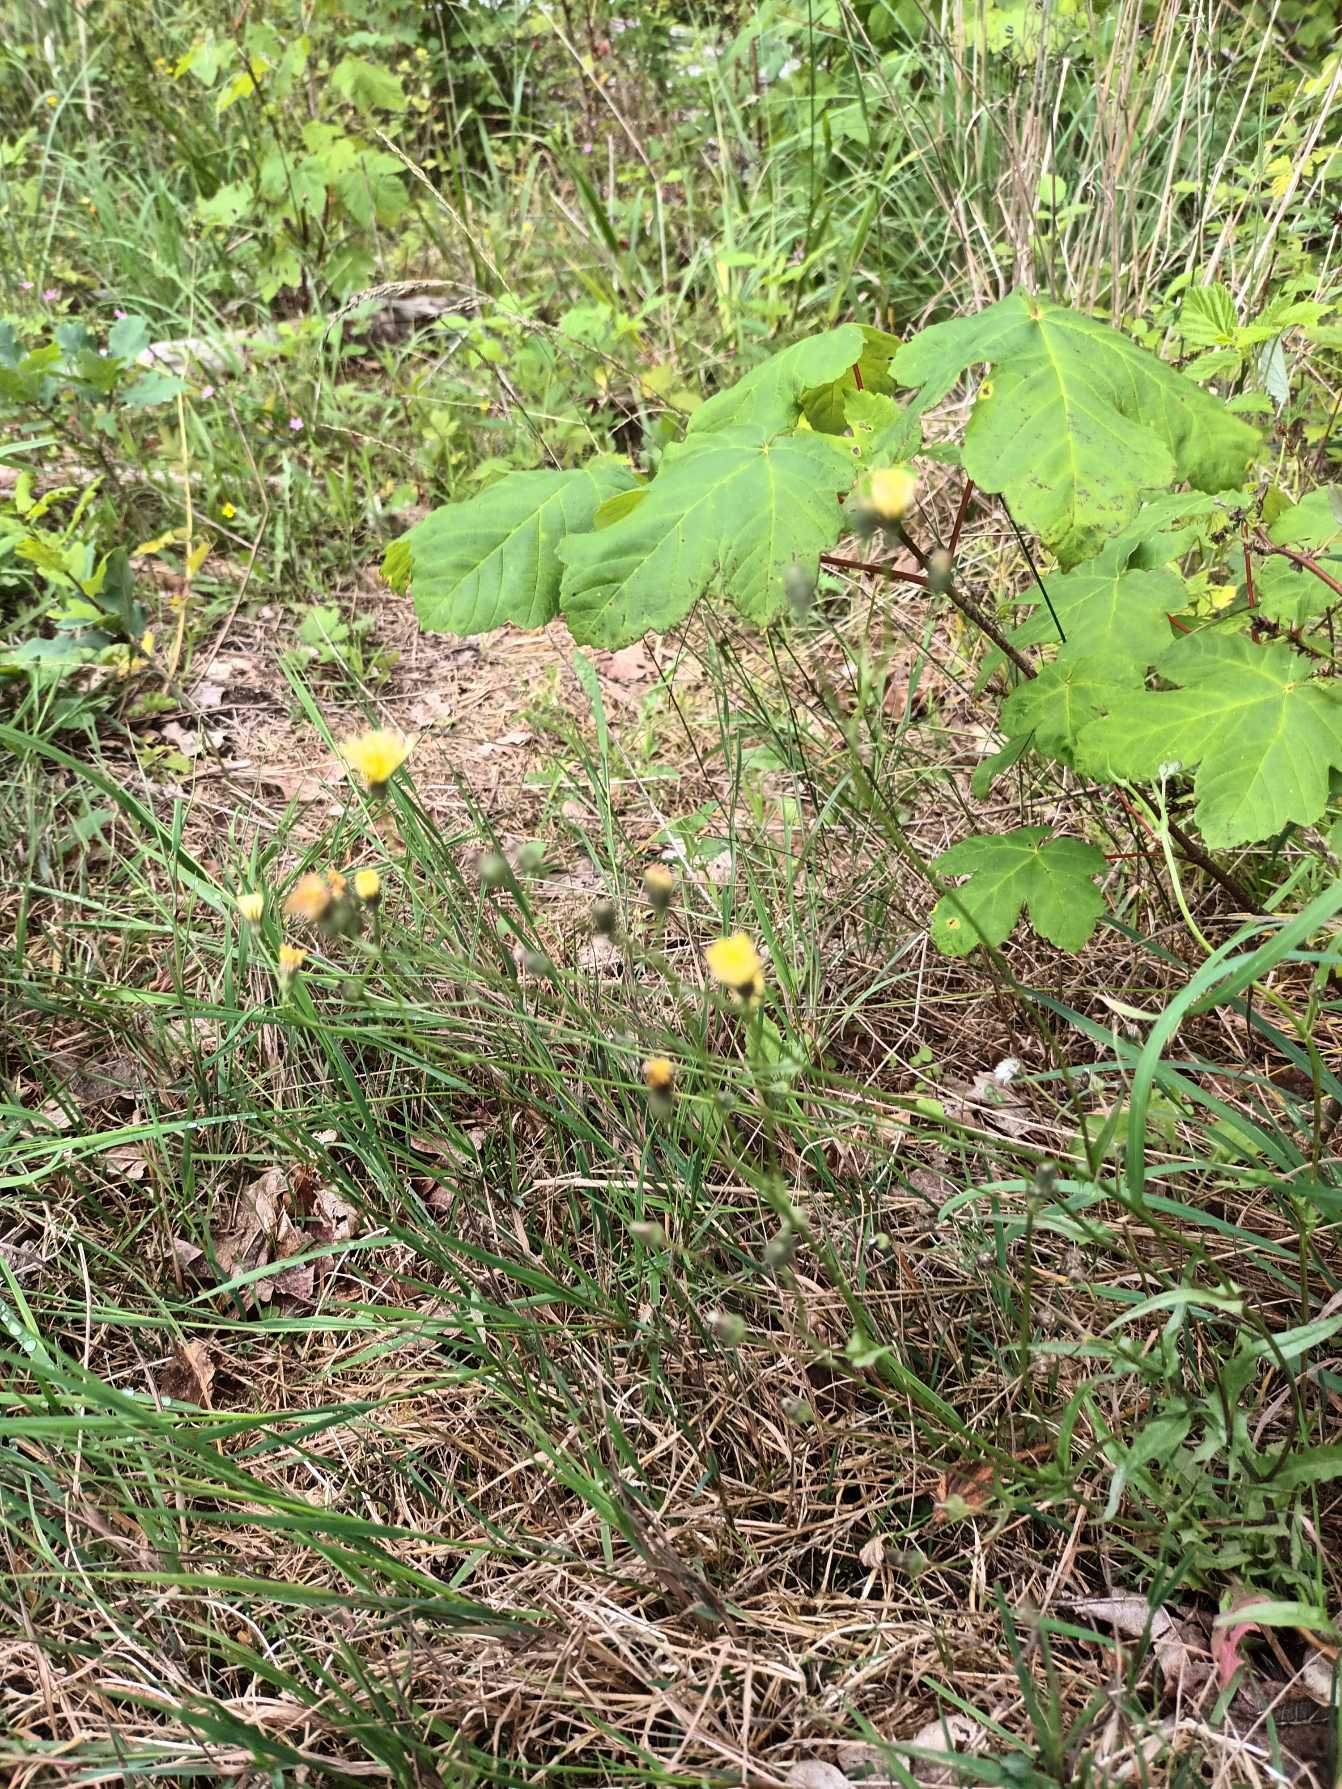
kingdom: Plantae
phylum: Tracheophyta
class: Magnoliopsida
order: Asterales
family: Asteraceae
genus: Crepis
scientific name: Crepis capillaris
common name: Grøn høgeskæg
